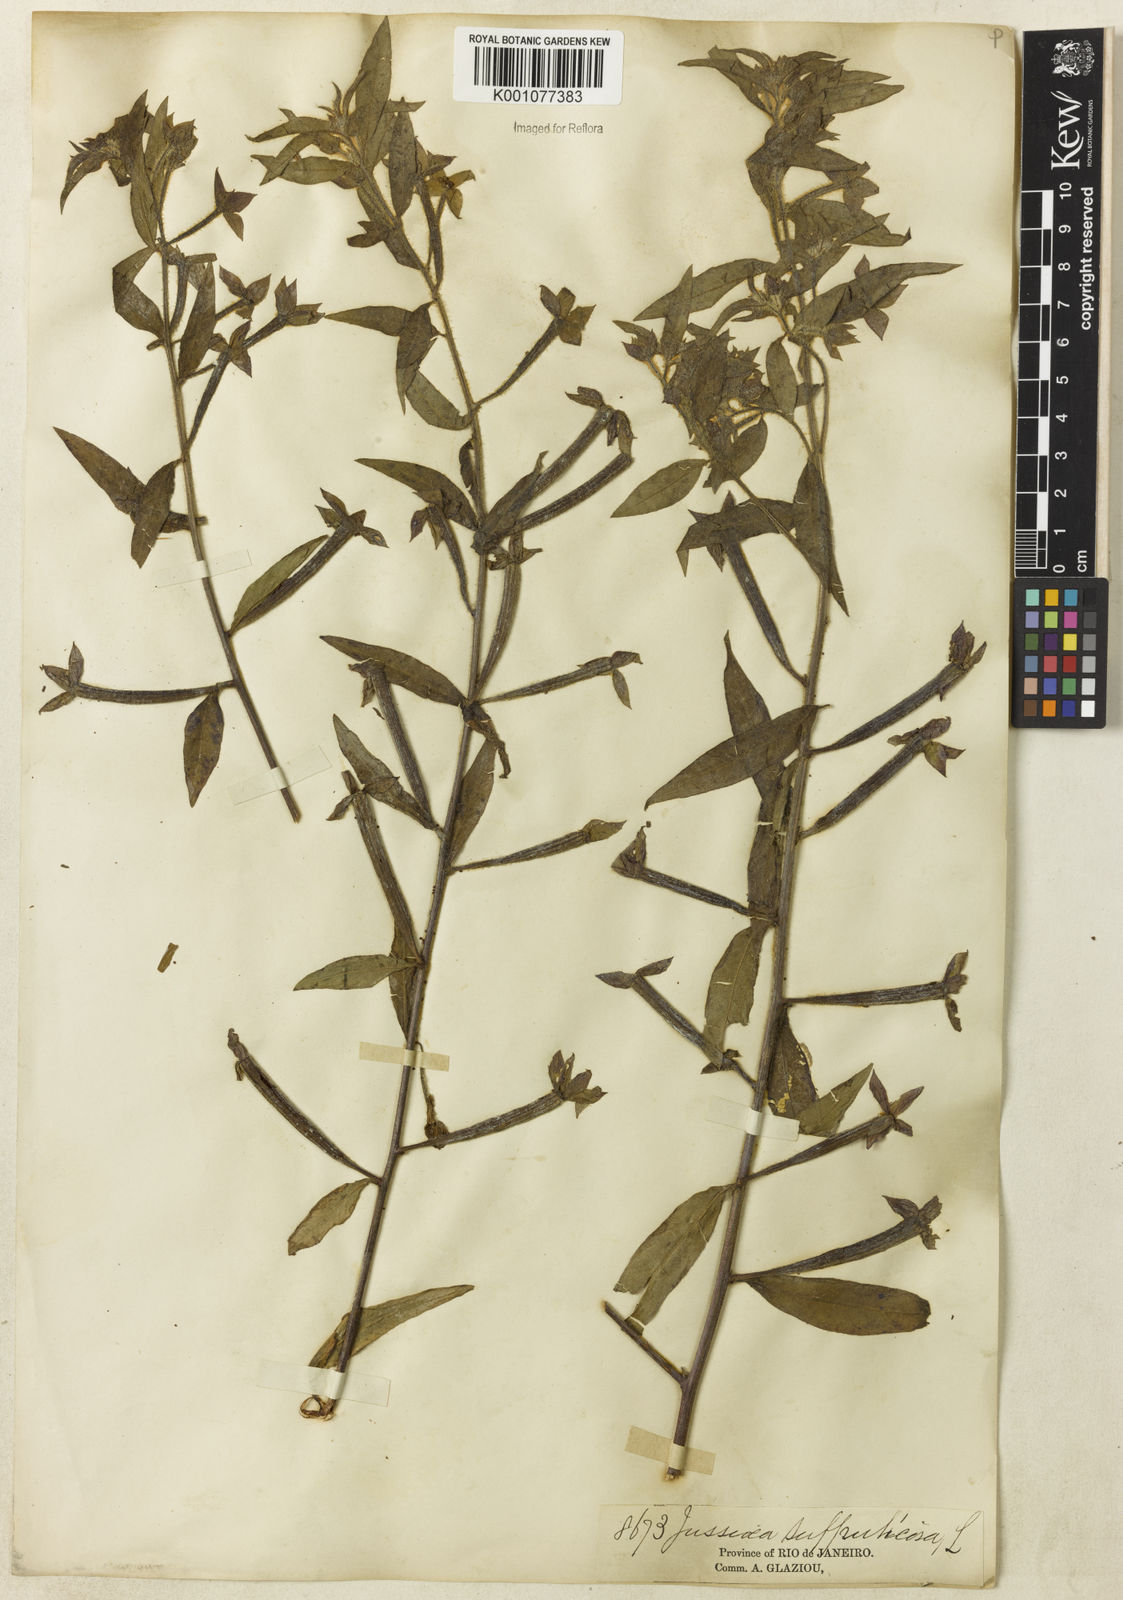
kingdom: Plantae
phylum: Tracheophyta
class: Magnoliopsida
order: Myrtales
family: Onagraceae
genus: Ludwigia
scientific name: Ludwigia octovalvis
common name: Water-primrose
